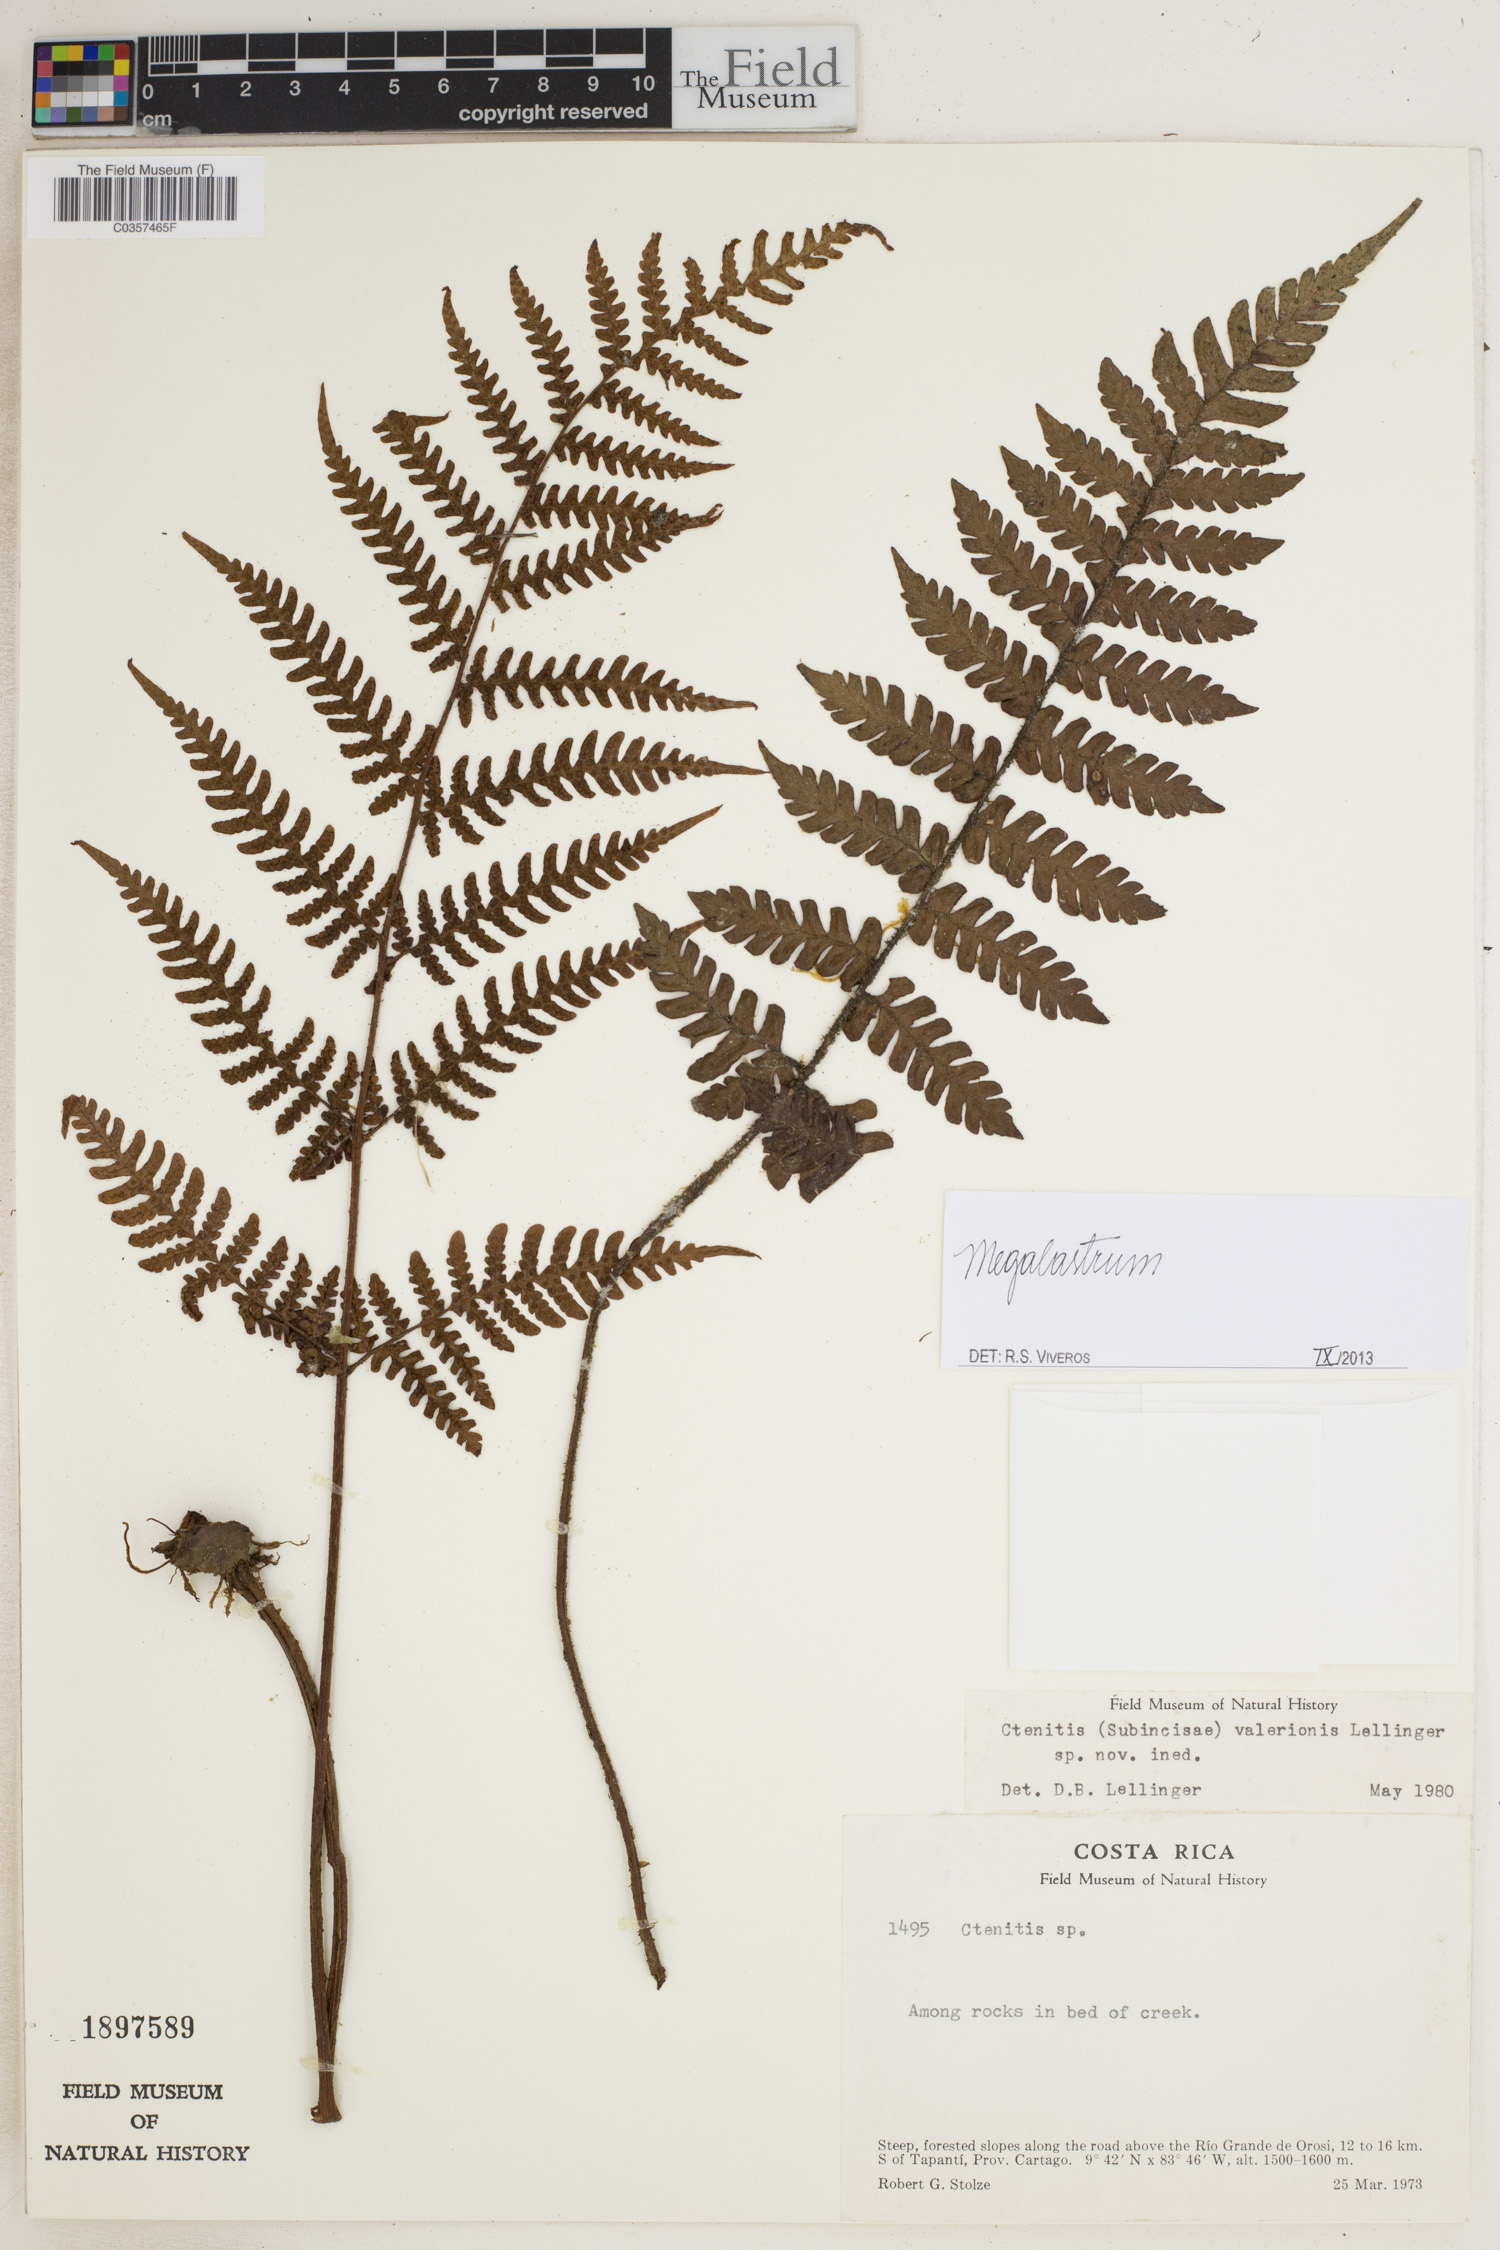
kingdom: Plantae
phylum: Tracheophyta
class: Polypodiopsida
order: Polypodiales
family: Dryopteridaceae
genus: Megalastrum
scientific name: Megalastrum
